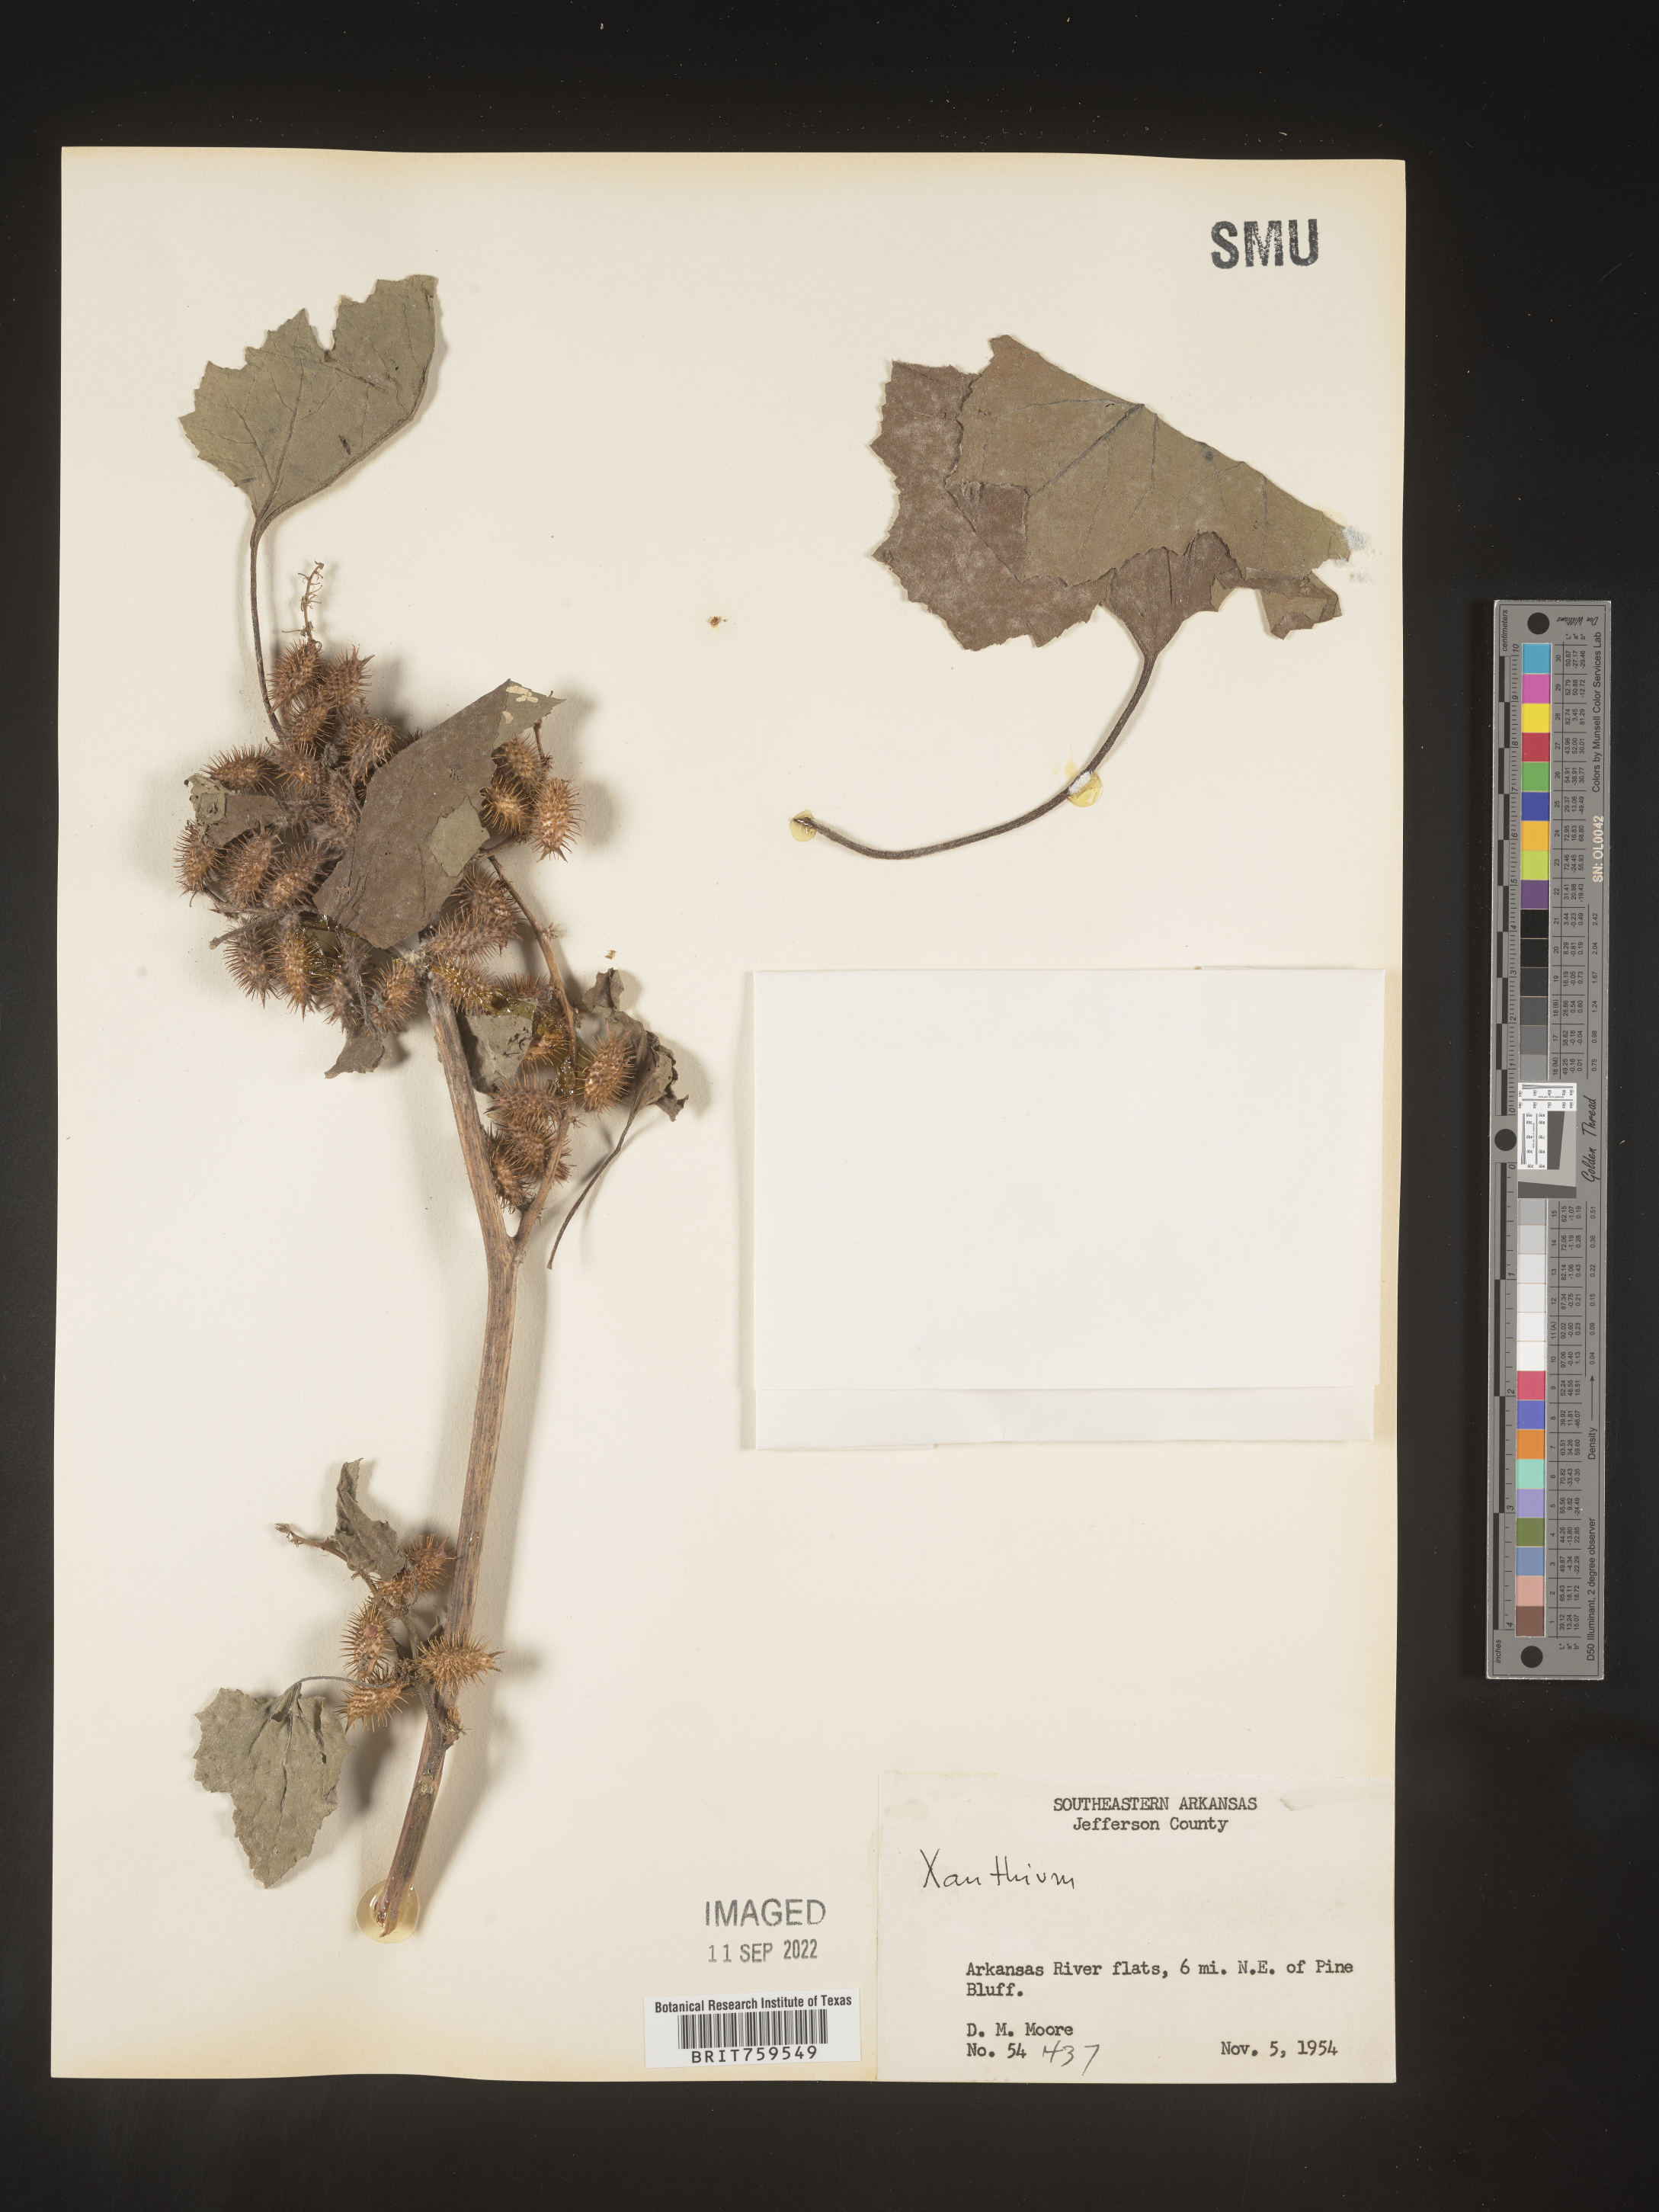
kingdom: Plantae
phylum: Tracheophyta
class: Magnoliopsida
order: Asterales
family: Asteraceae
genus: Xanthium
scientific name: Xanthium
